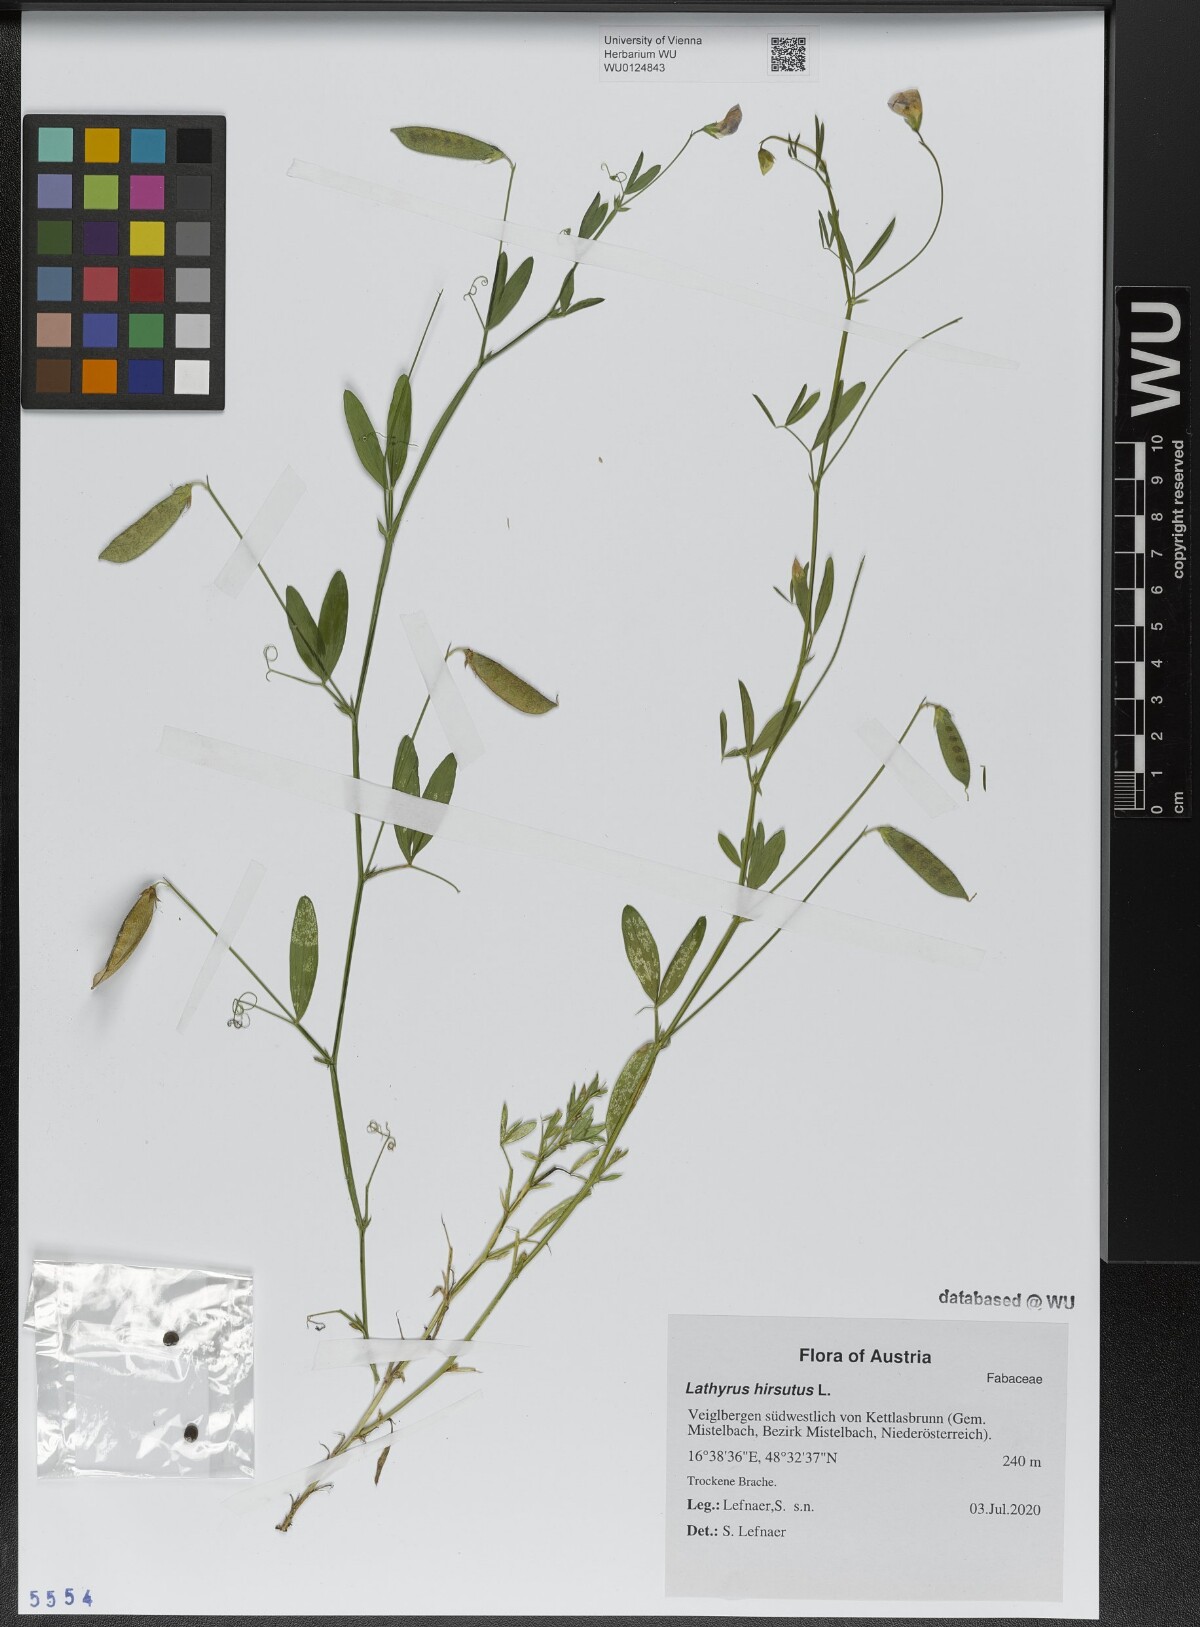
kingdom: Plantae
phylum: Tracheophyta
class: Magnoliopsida
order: Fabales
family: Fabaceae
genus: Lathyrus
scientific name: Lathyrus hirsutus
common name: Hairy vetchling
